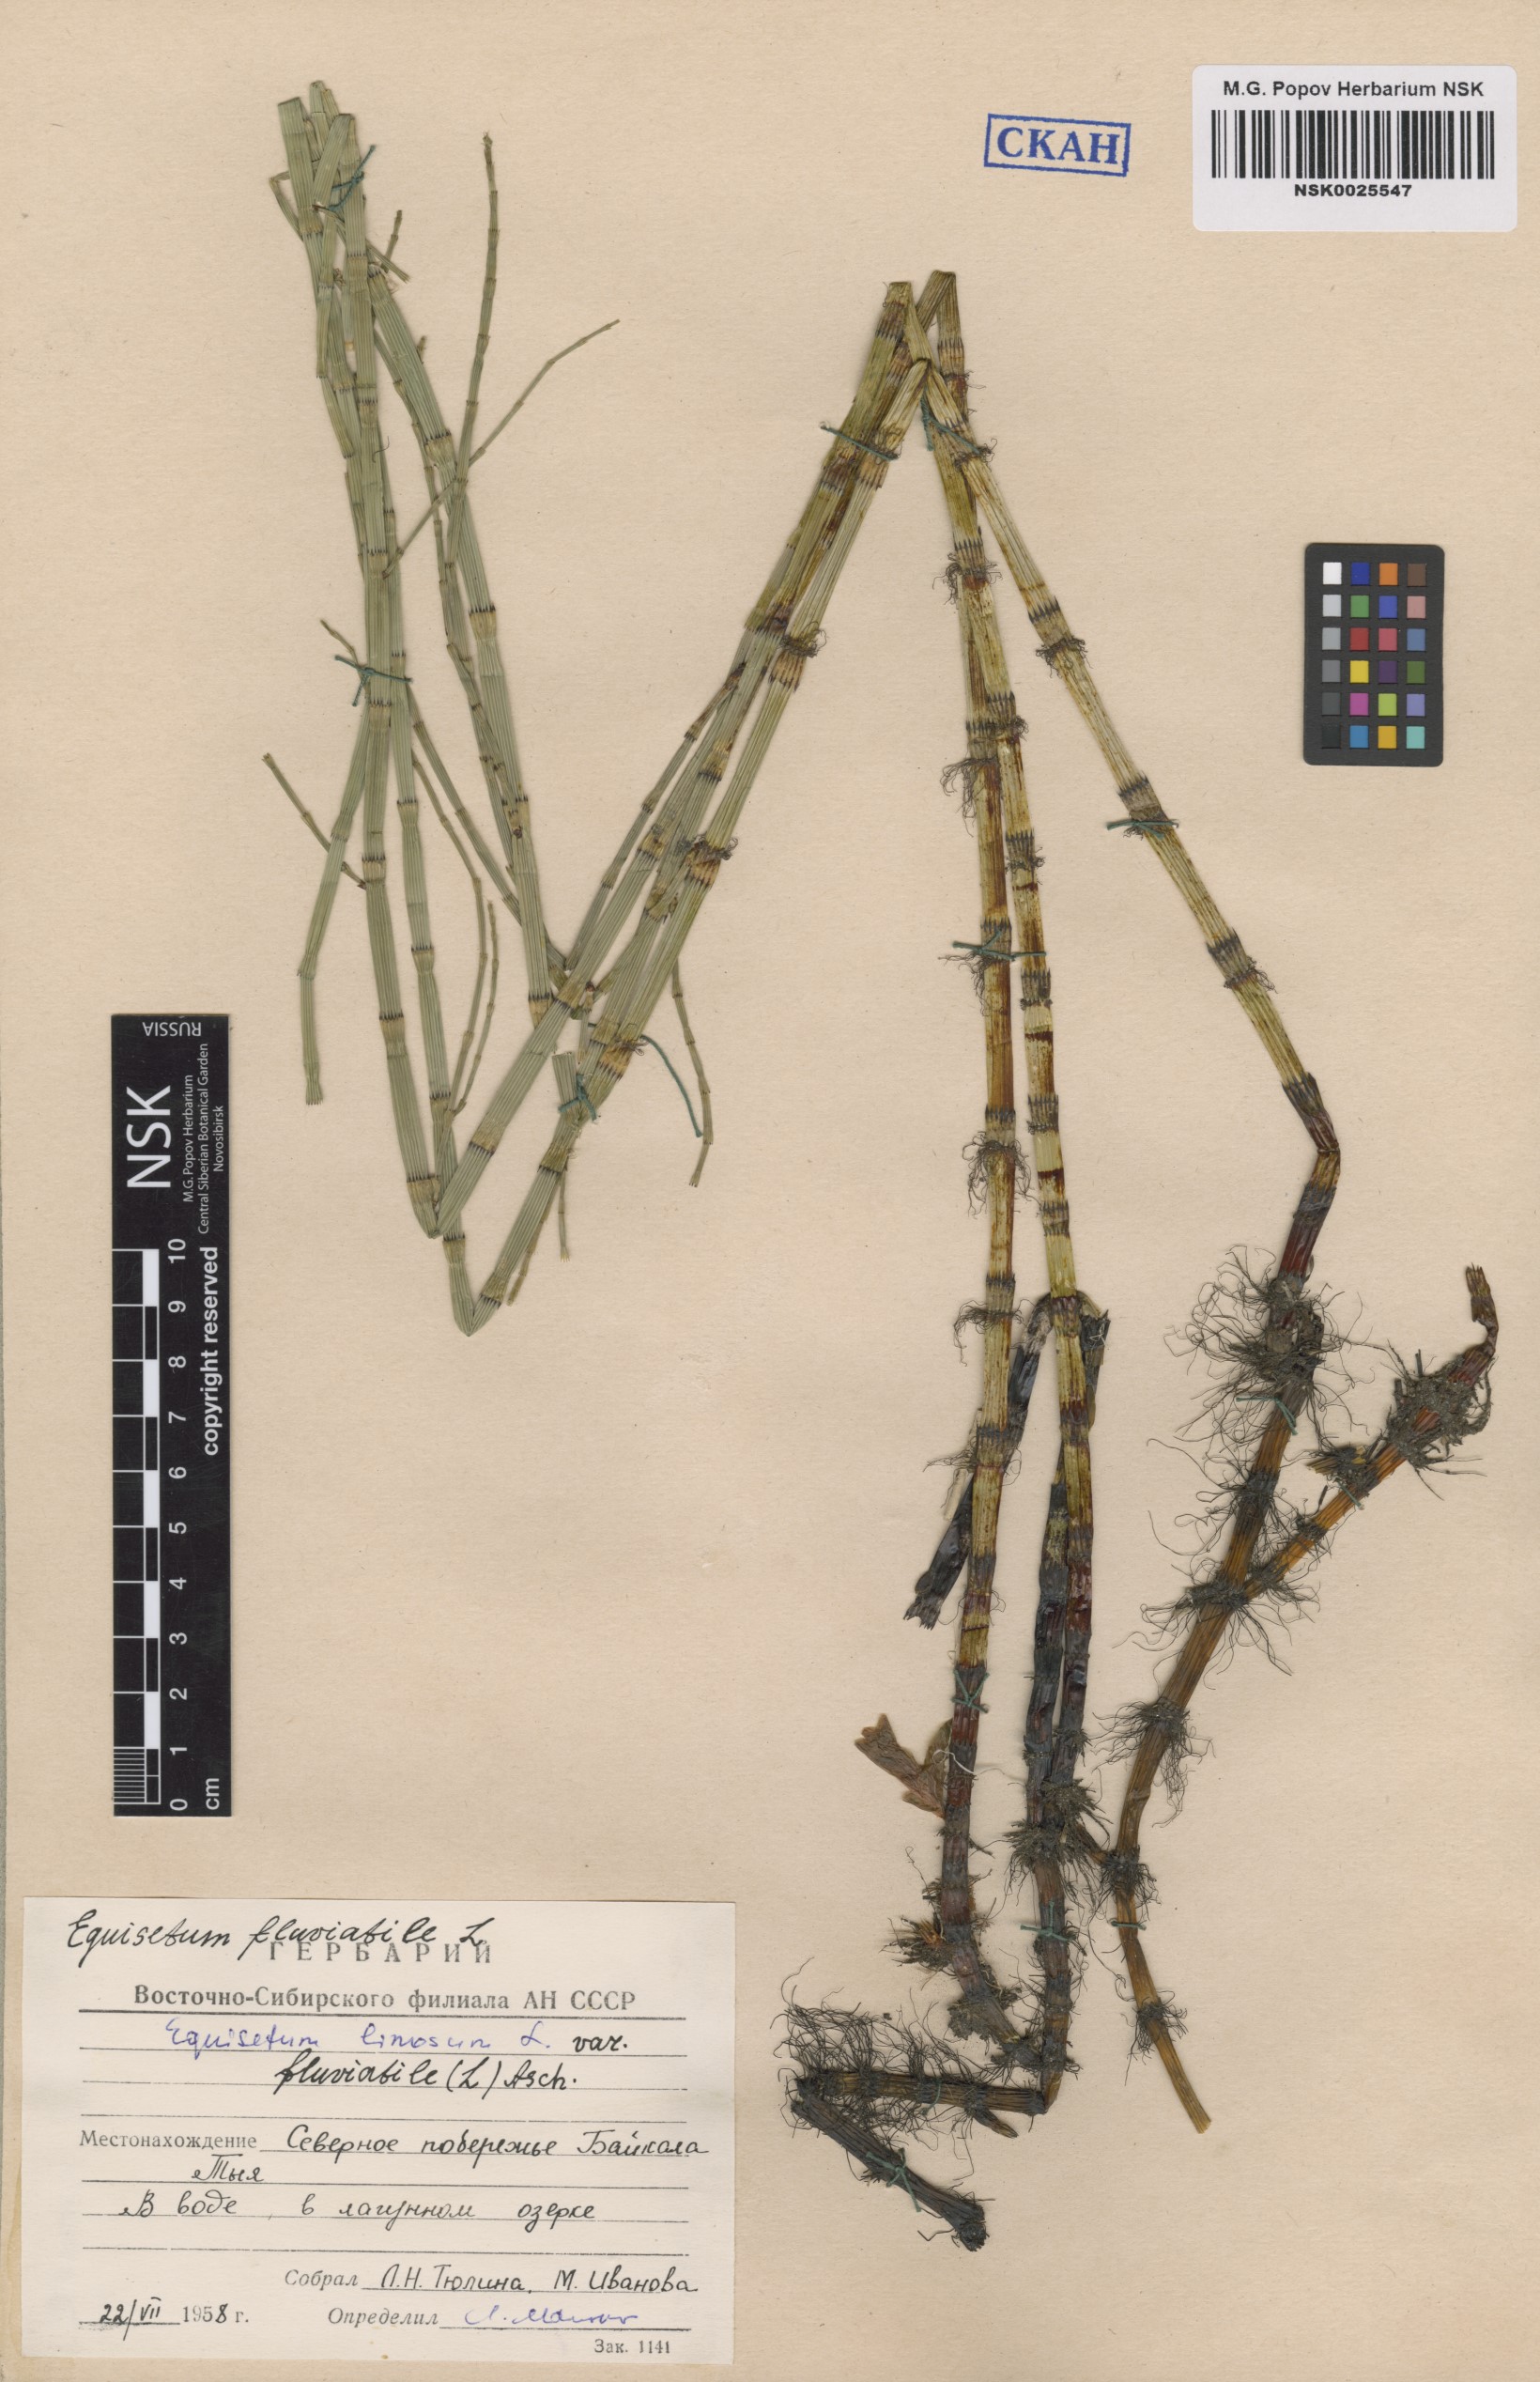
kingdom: Plantae
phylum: Tracheophyta
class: Polypodiopsida
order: Equisetales
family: Equisetaceae
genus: Equisetum
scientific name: Equisetum fluviatile
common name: Water horsetail
